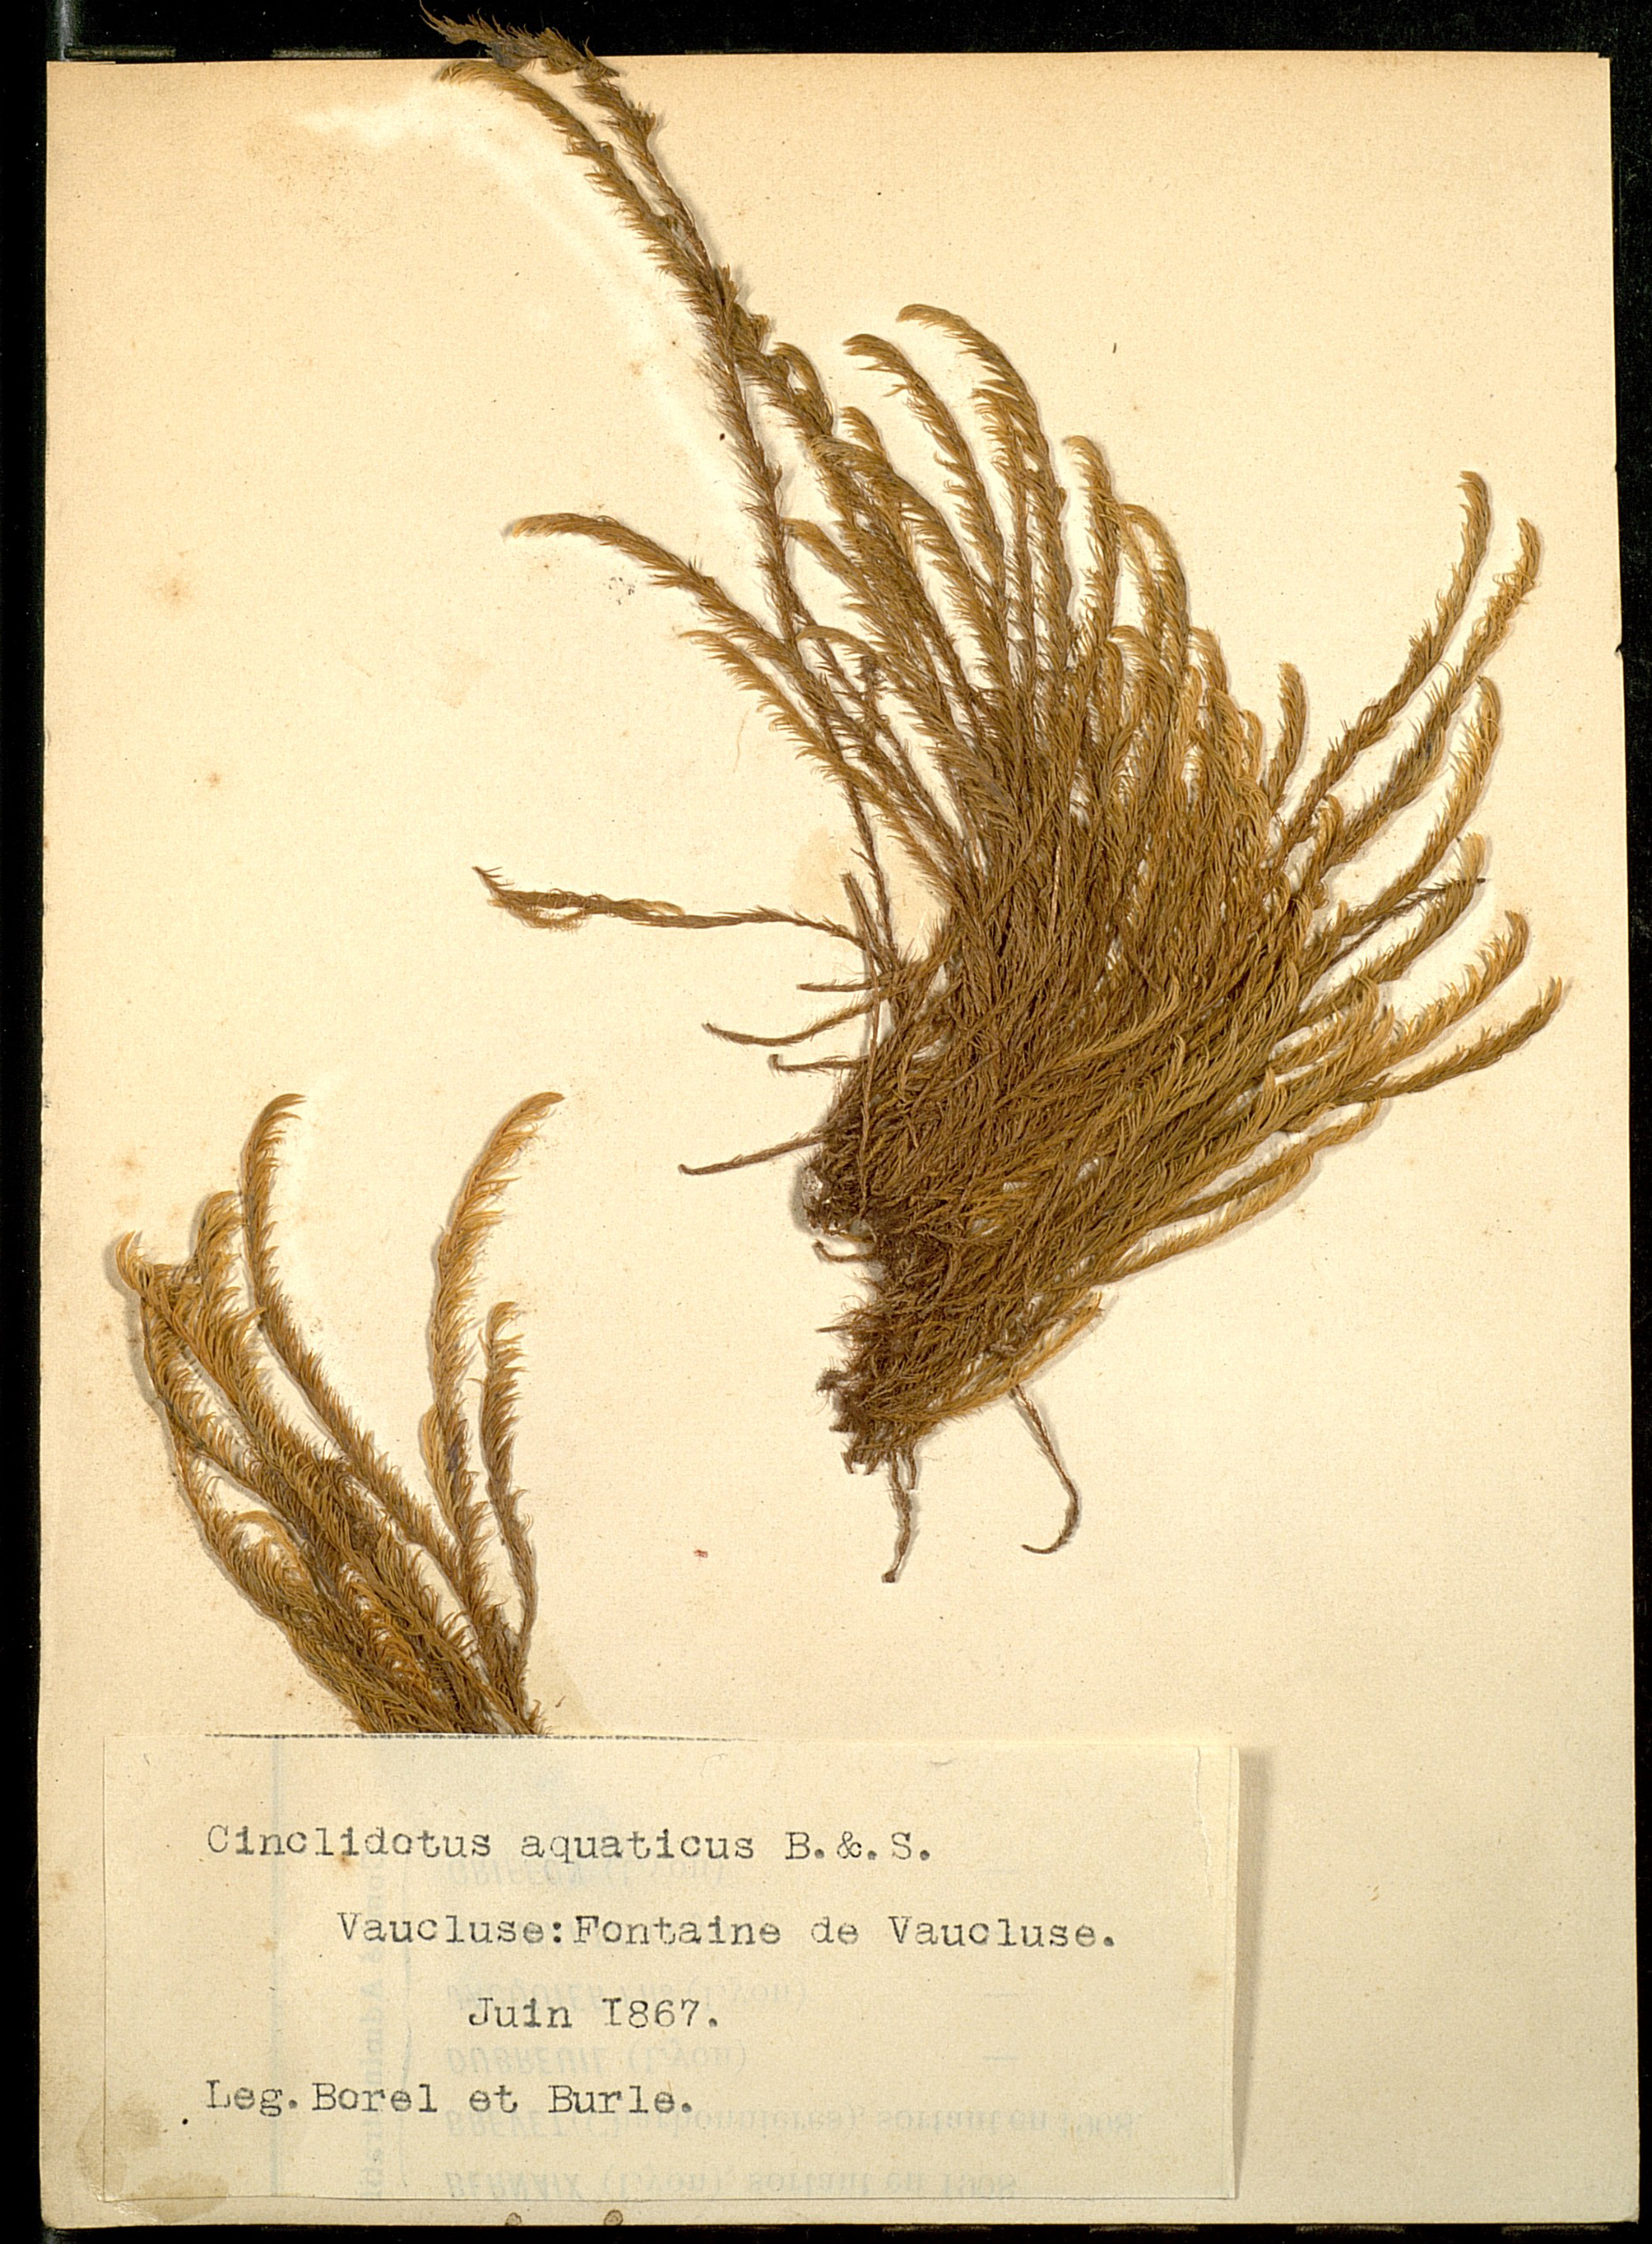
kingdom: Plantae
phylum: Bryophyta
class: Bryopsida
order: Pottiales
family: Pottiaceae
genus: Cinclidotus
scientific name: Cinclidotus aquaticus
